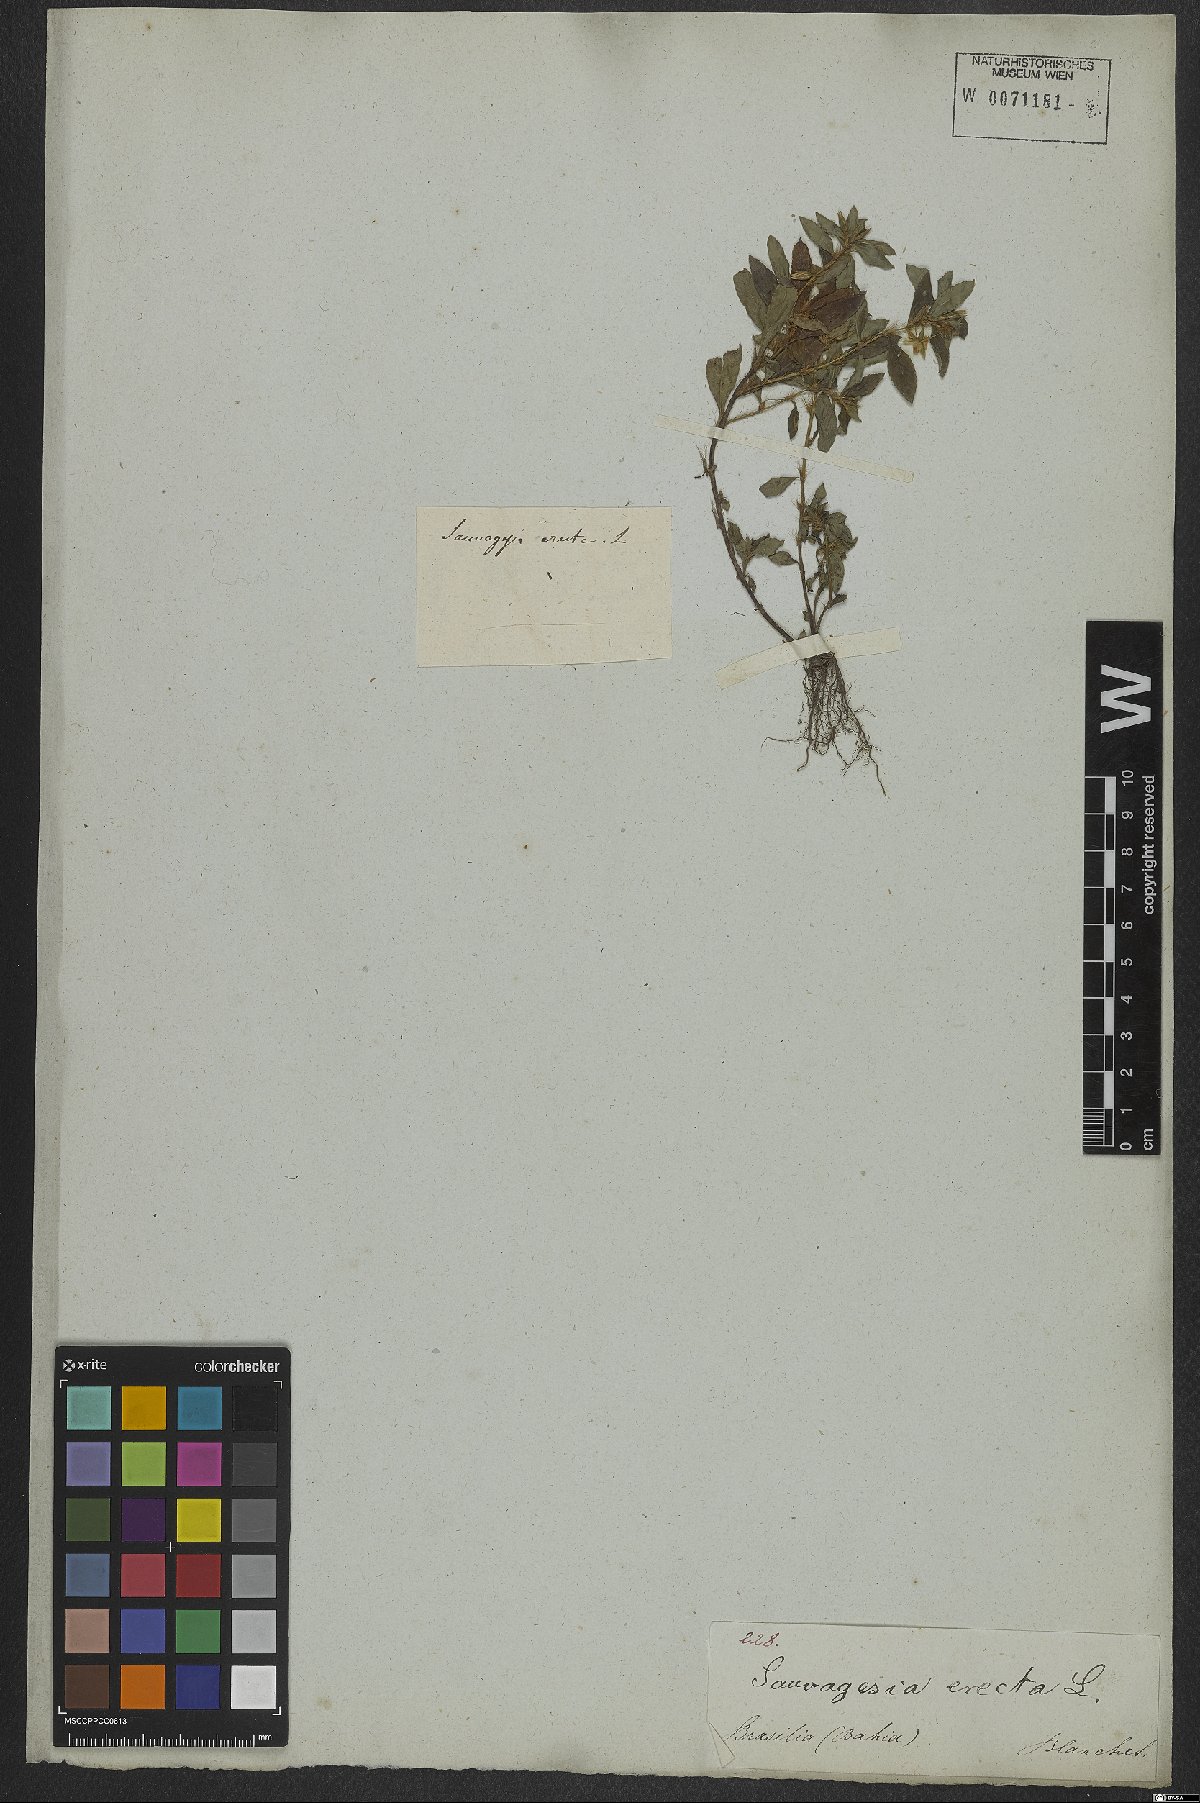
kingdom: Plantae
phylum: Tracheophyta
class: Magnoliopsida
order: Malpighiales
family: Ochnaceae
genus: Sauvagesia
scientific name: Sauvagesia erecta
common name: Creole tea
